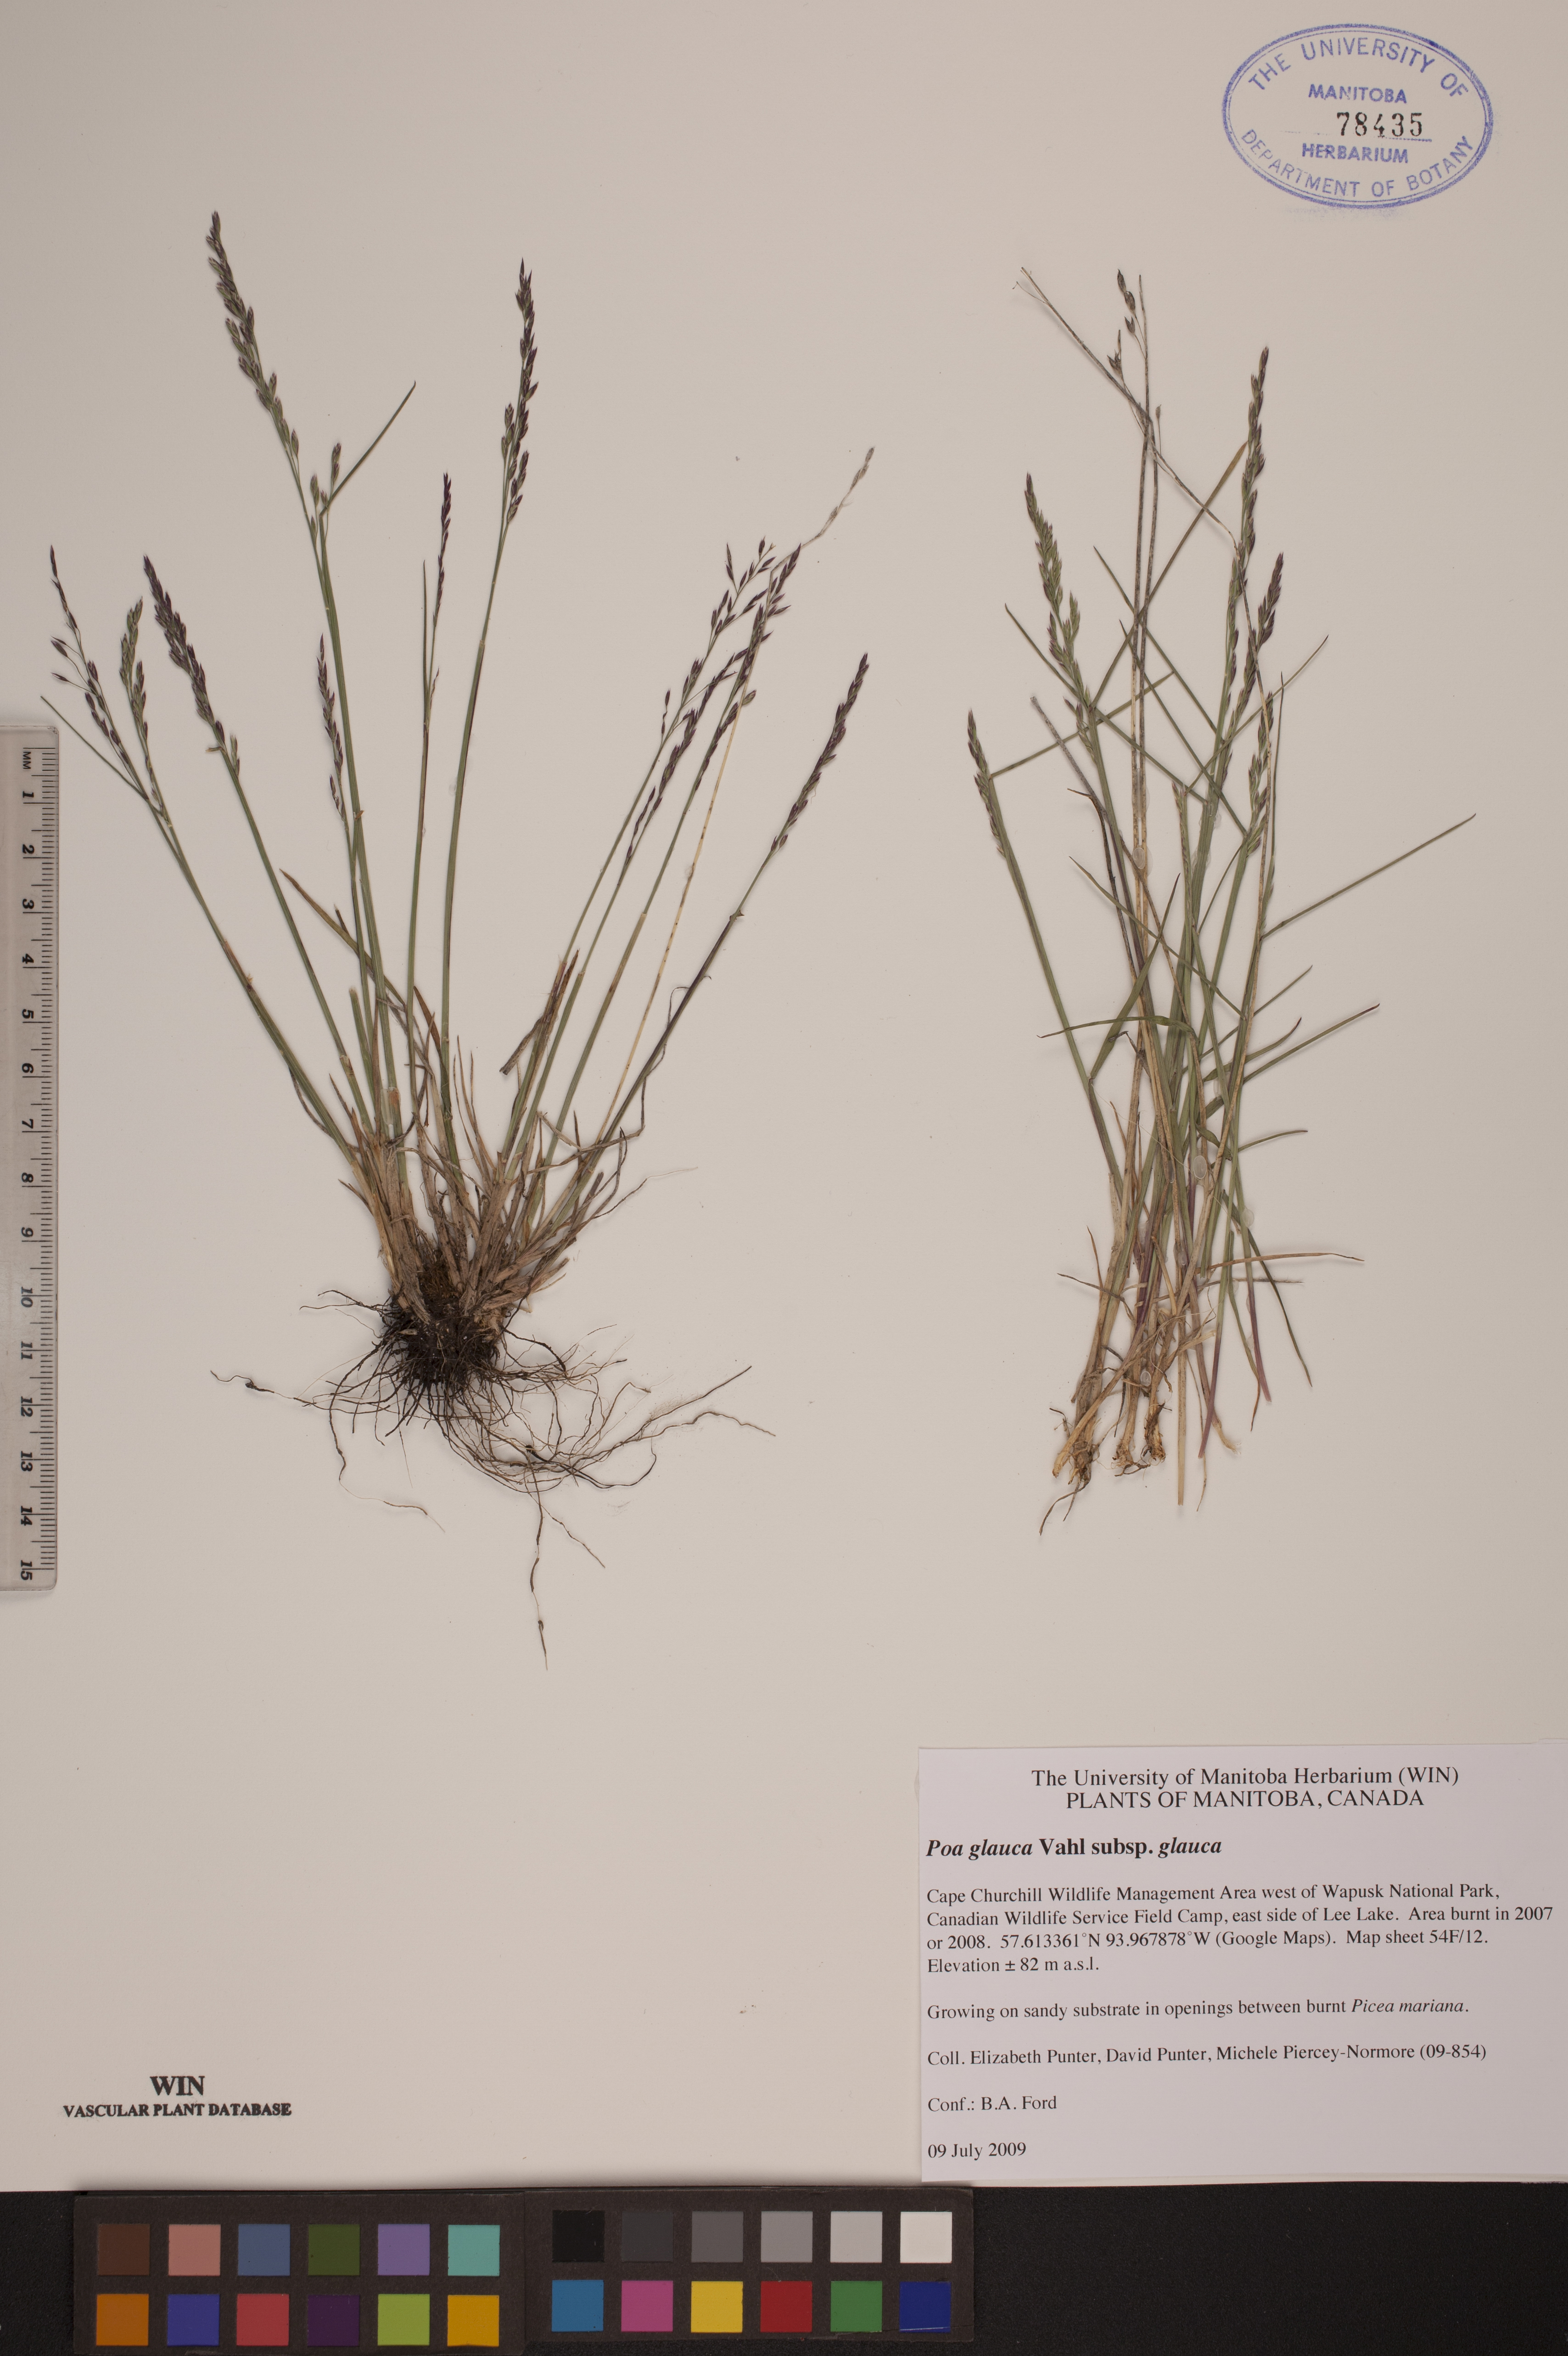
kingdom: Plantae
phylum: Tracheophyta
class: Liliopsida
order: Poales
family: Poaceae
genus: Poa
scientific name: Poa glauca
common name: Glaucous bluegrass
